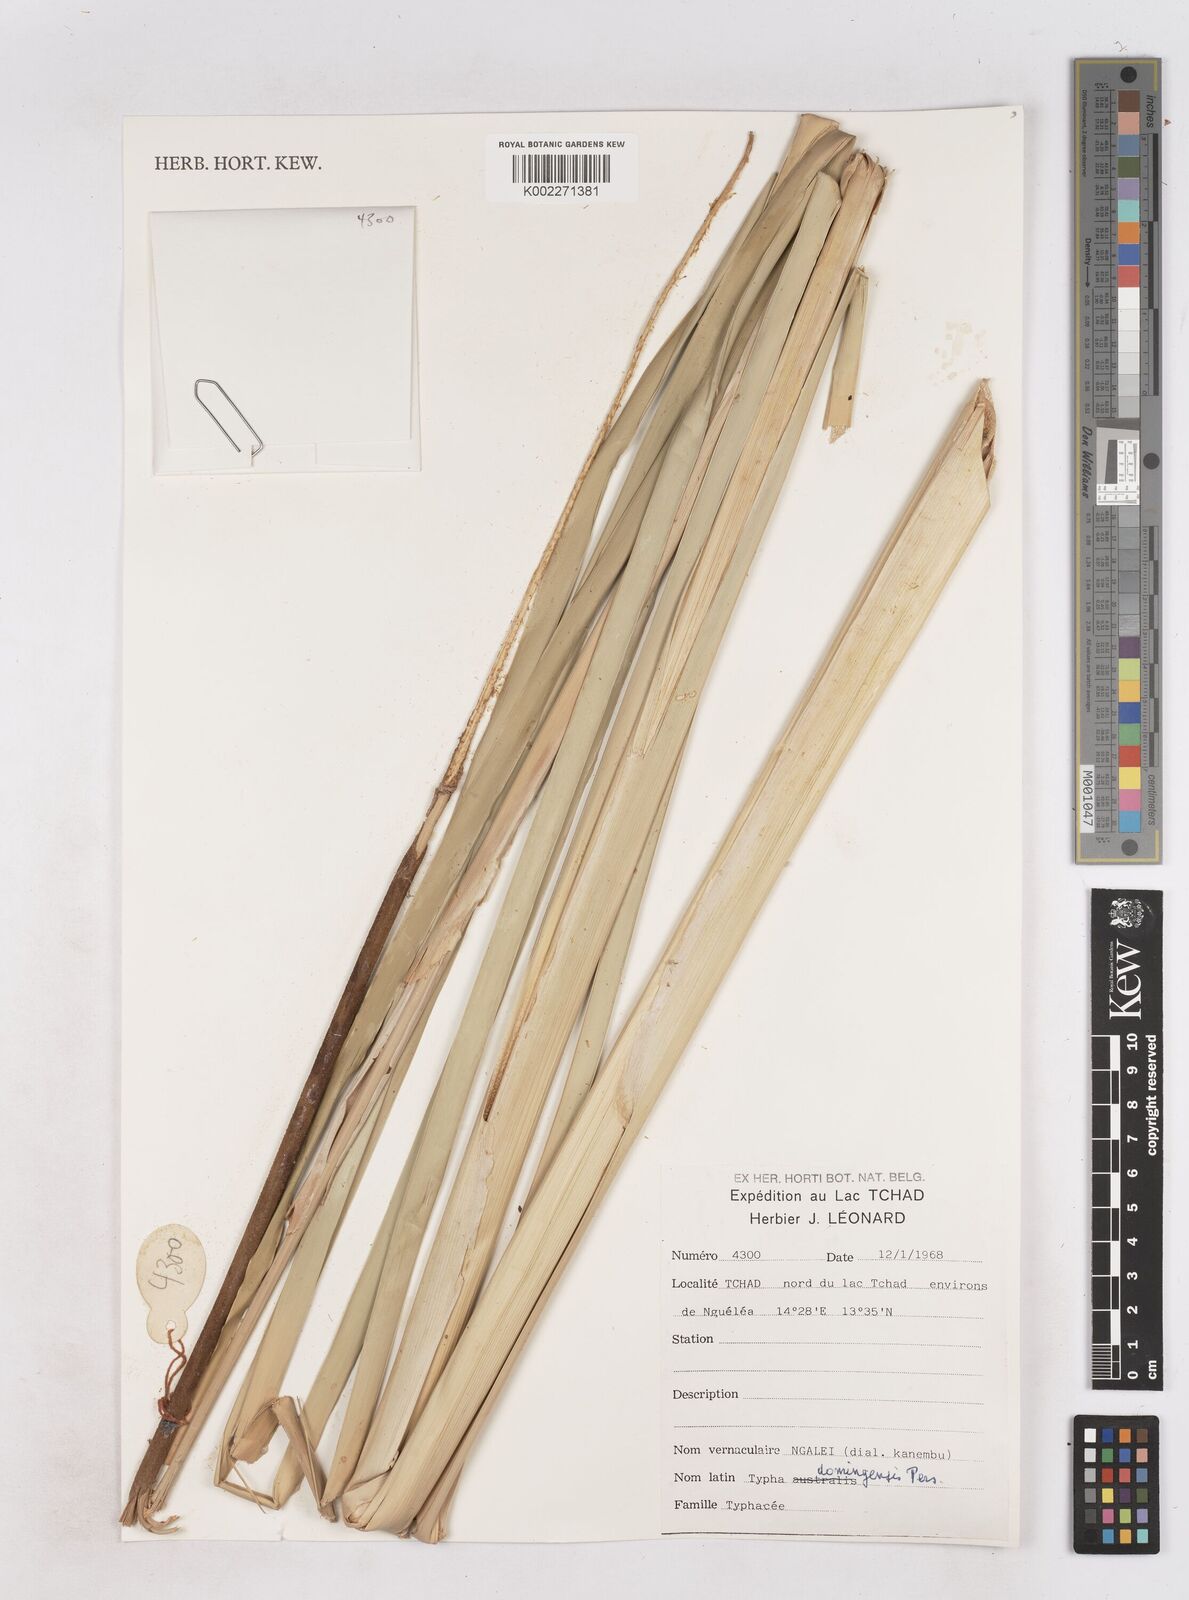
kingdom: Plantae
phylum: Tracheophyta
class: Liliopsida
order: Poales
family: Typhaceae
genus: Typha
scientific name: Typha domingensis
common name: Southern cattail
